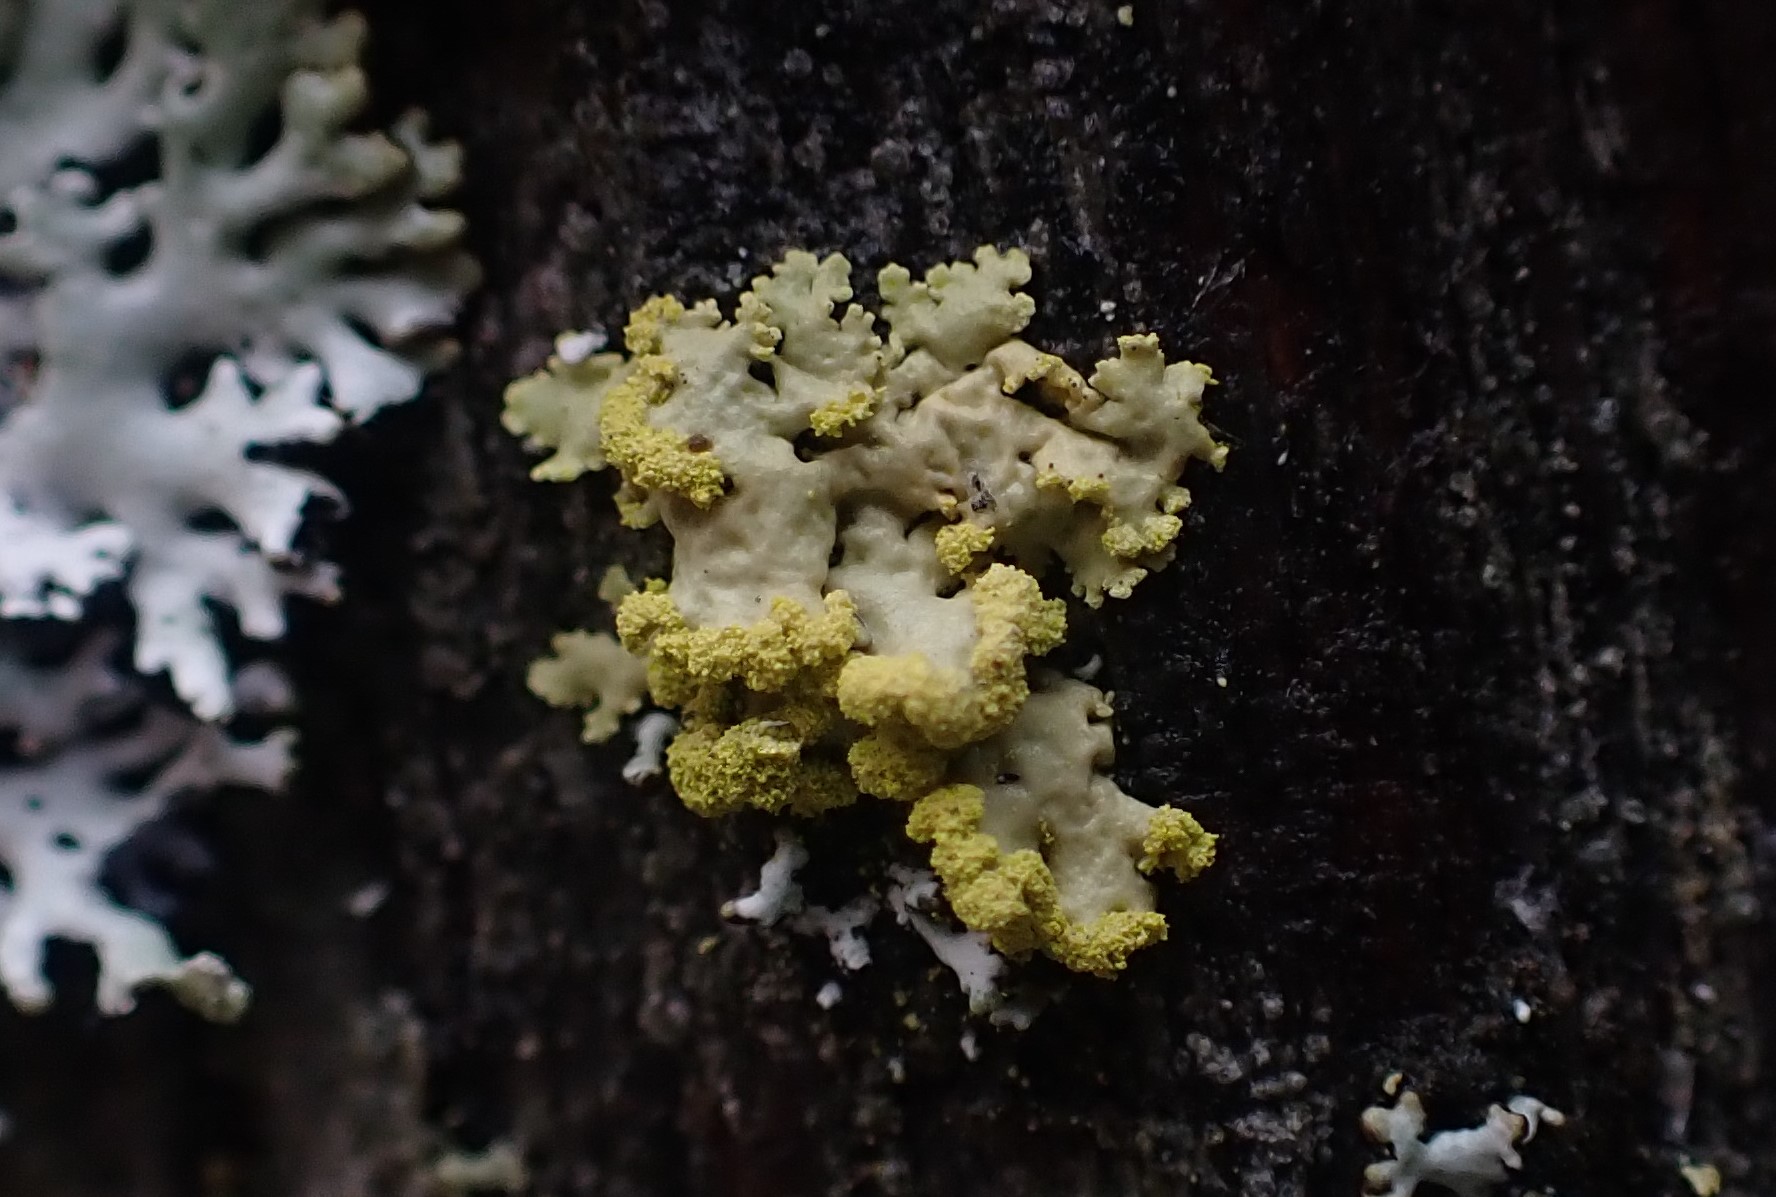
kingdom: Fungi
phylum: Ascomycota
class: Lecanoromycetes
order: Lecanorales
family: Parmeliaceae
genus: Vulpicida
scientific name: Vulpicida pinastri
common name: gul kruslav
